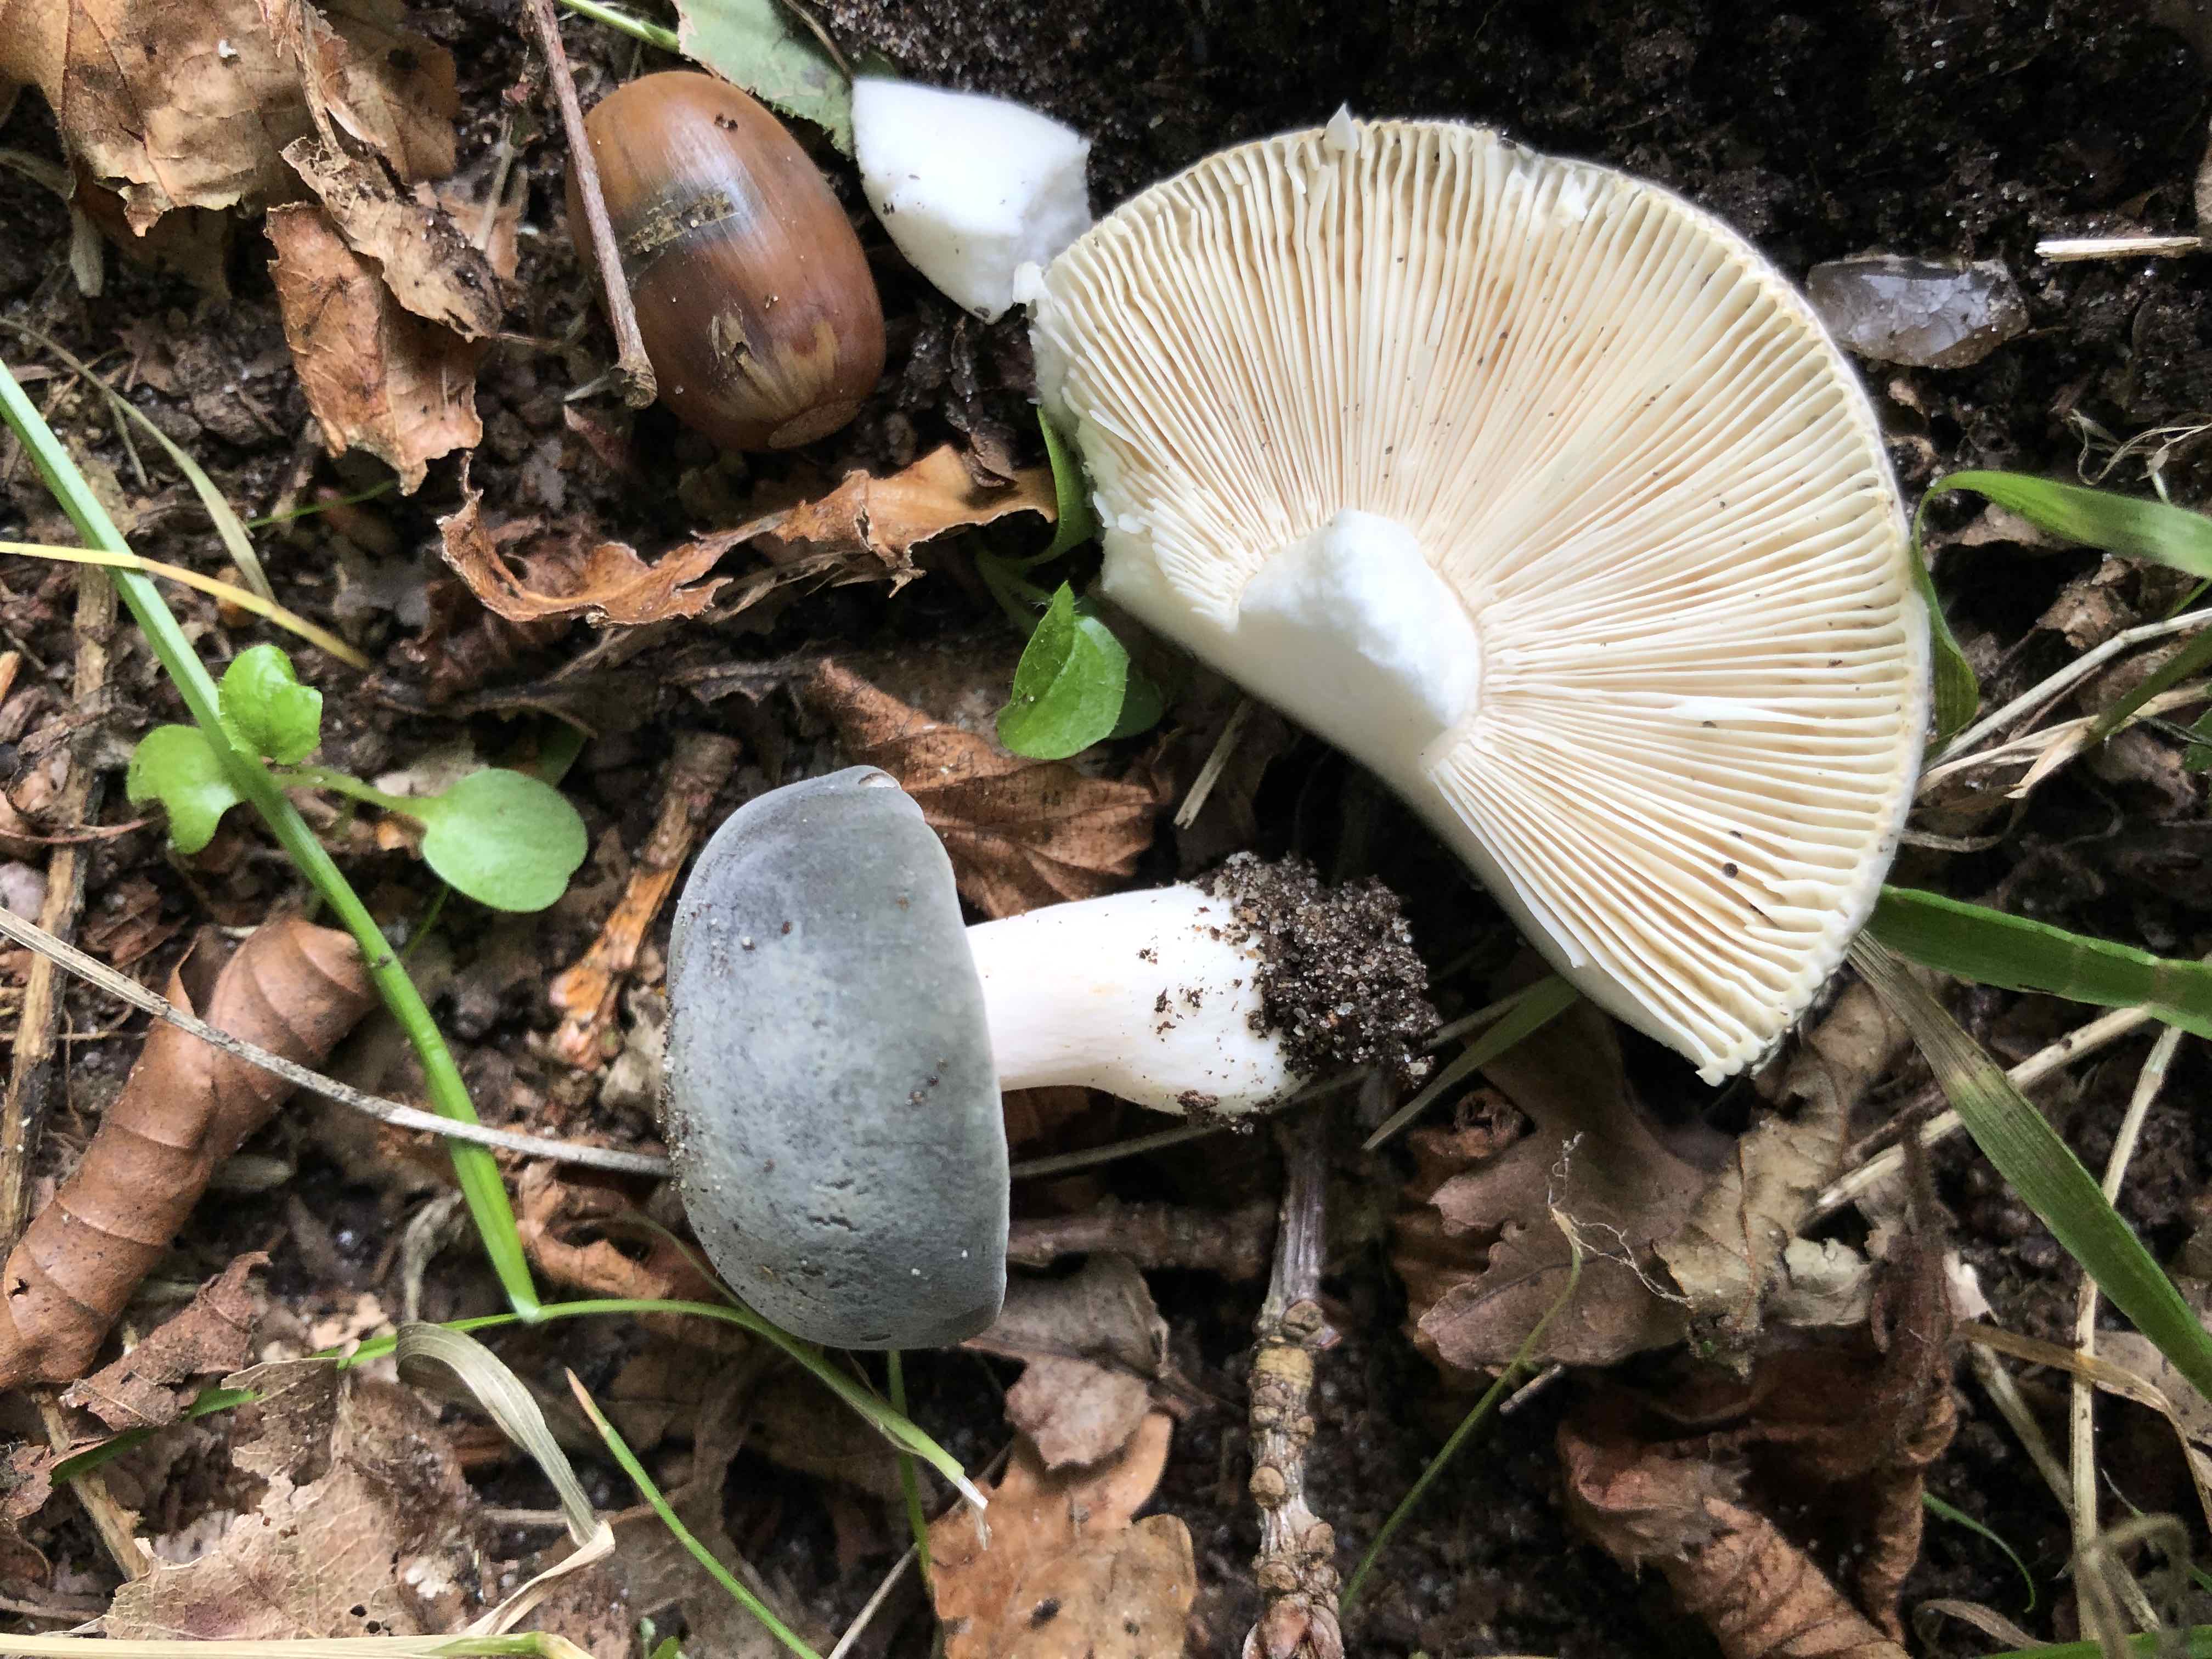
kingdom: Fungi
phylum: Basidiomycota
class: Agaricomycetes
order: Russulales
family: Russulaceae
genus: Russula
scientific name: Russula parazurea
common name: blågrå skørhat
